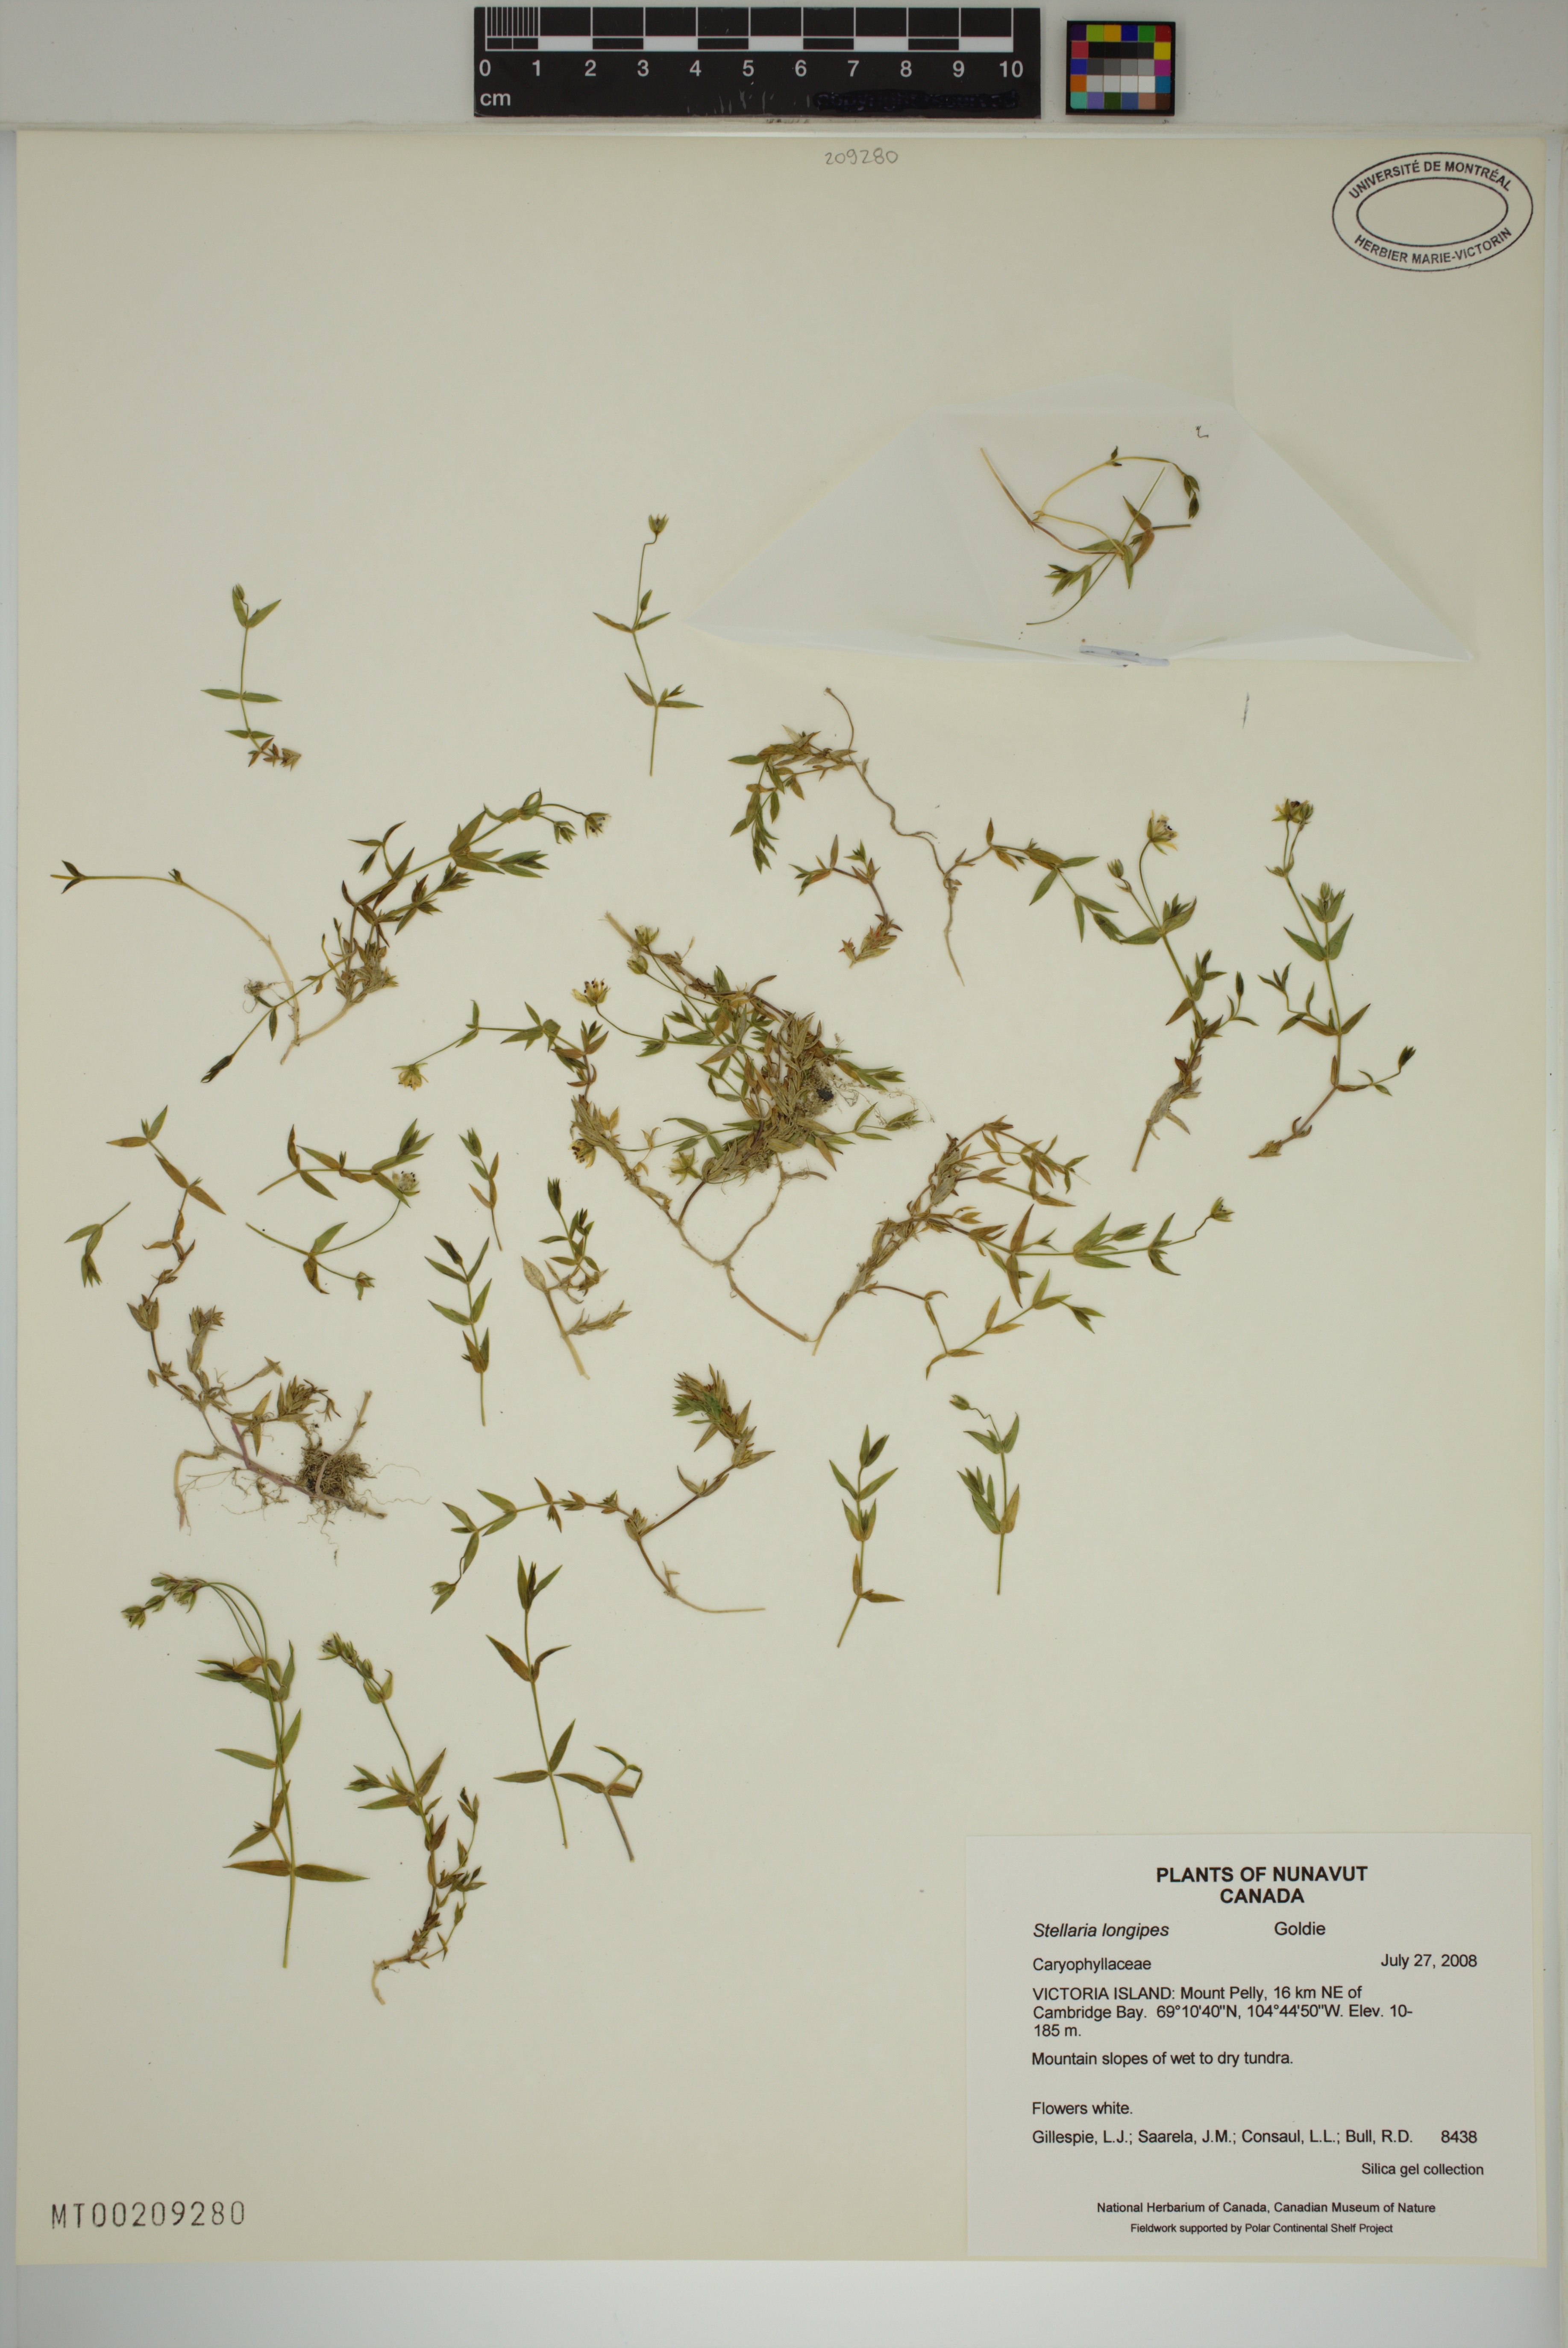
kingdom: Plantae
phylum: Tracheophyta
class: Magnoliopsida
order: Caryophyllales
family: Caryophyllaceae
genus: Stellaria
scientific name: Stellaria longipes
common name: Goldie's starwort
